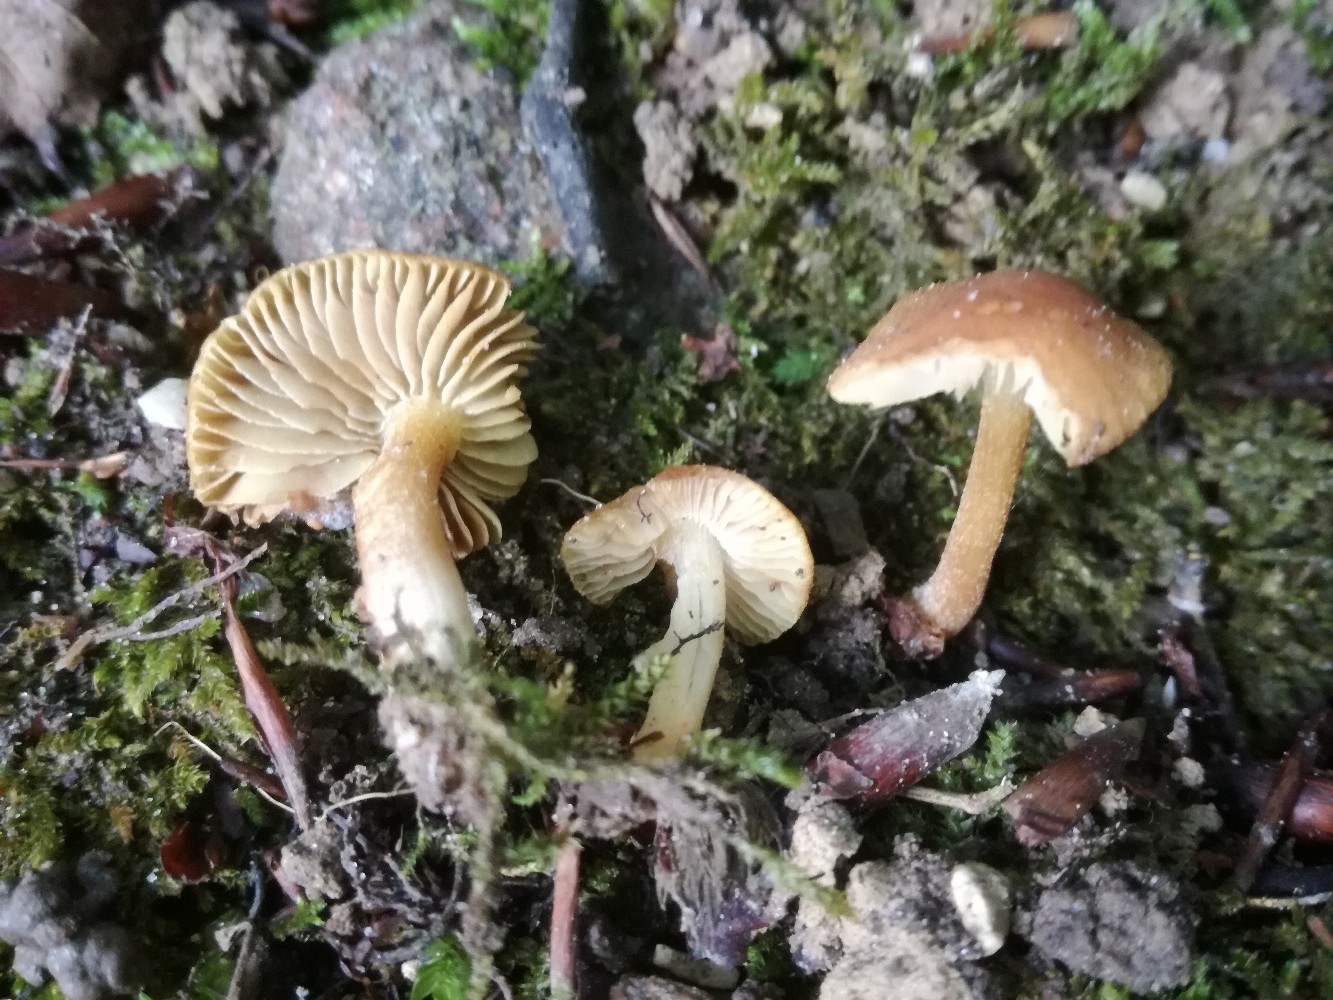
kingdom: Fungi
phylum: Basidiomycota
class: Agaricomycetes
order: Agaricales
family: Inocybaceae
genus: Inocybe
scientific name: Inocybe
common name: trævlhat
